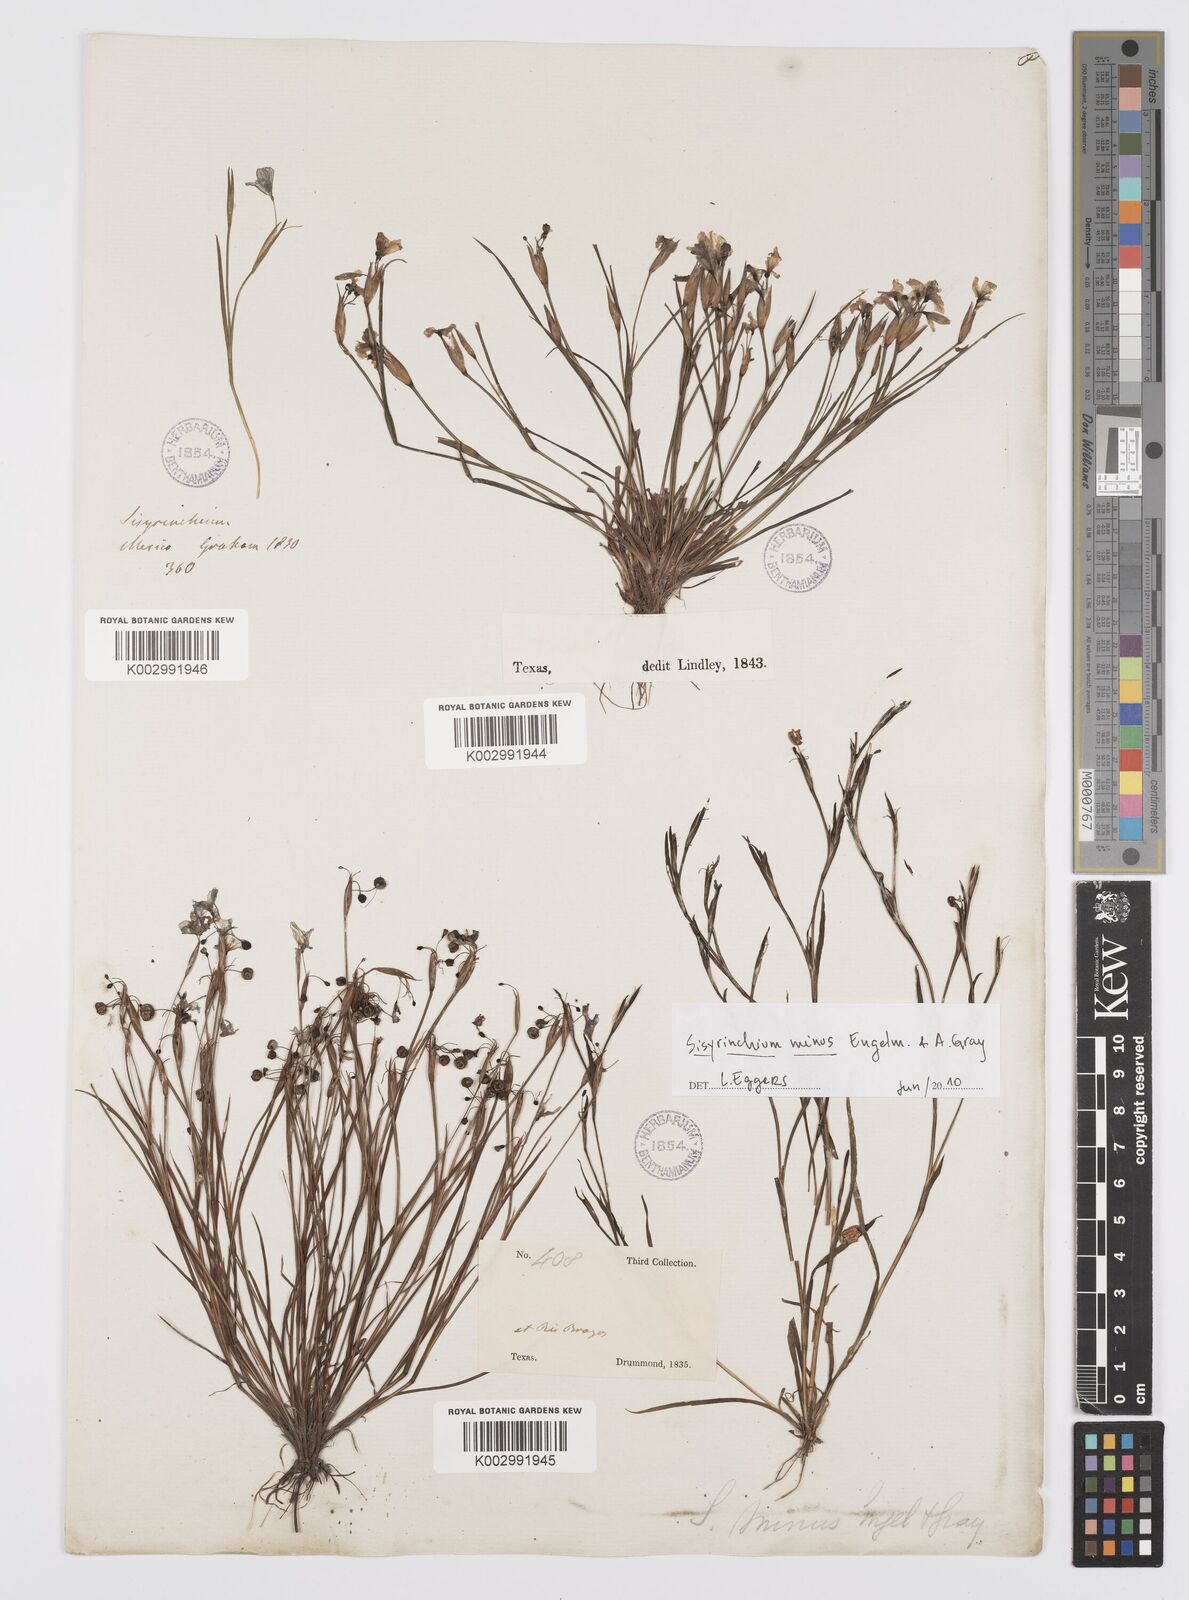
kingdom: Plantae
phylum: Tracheophyta
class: Liliopsida
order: Asparagales
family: Iridaceae
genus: Sisyrinchium
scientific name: Sisyrinchium minus
